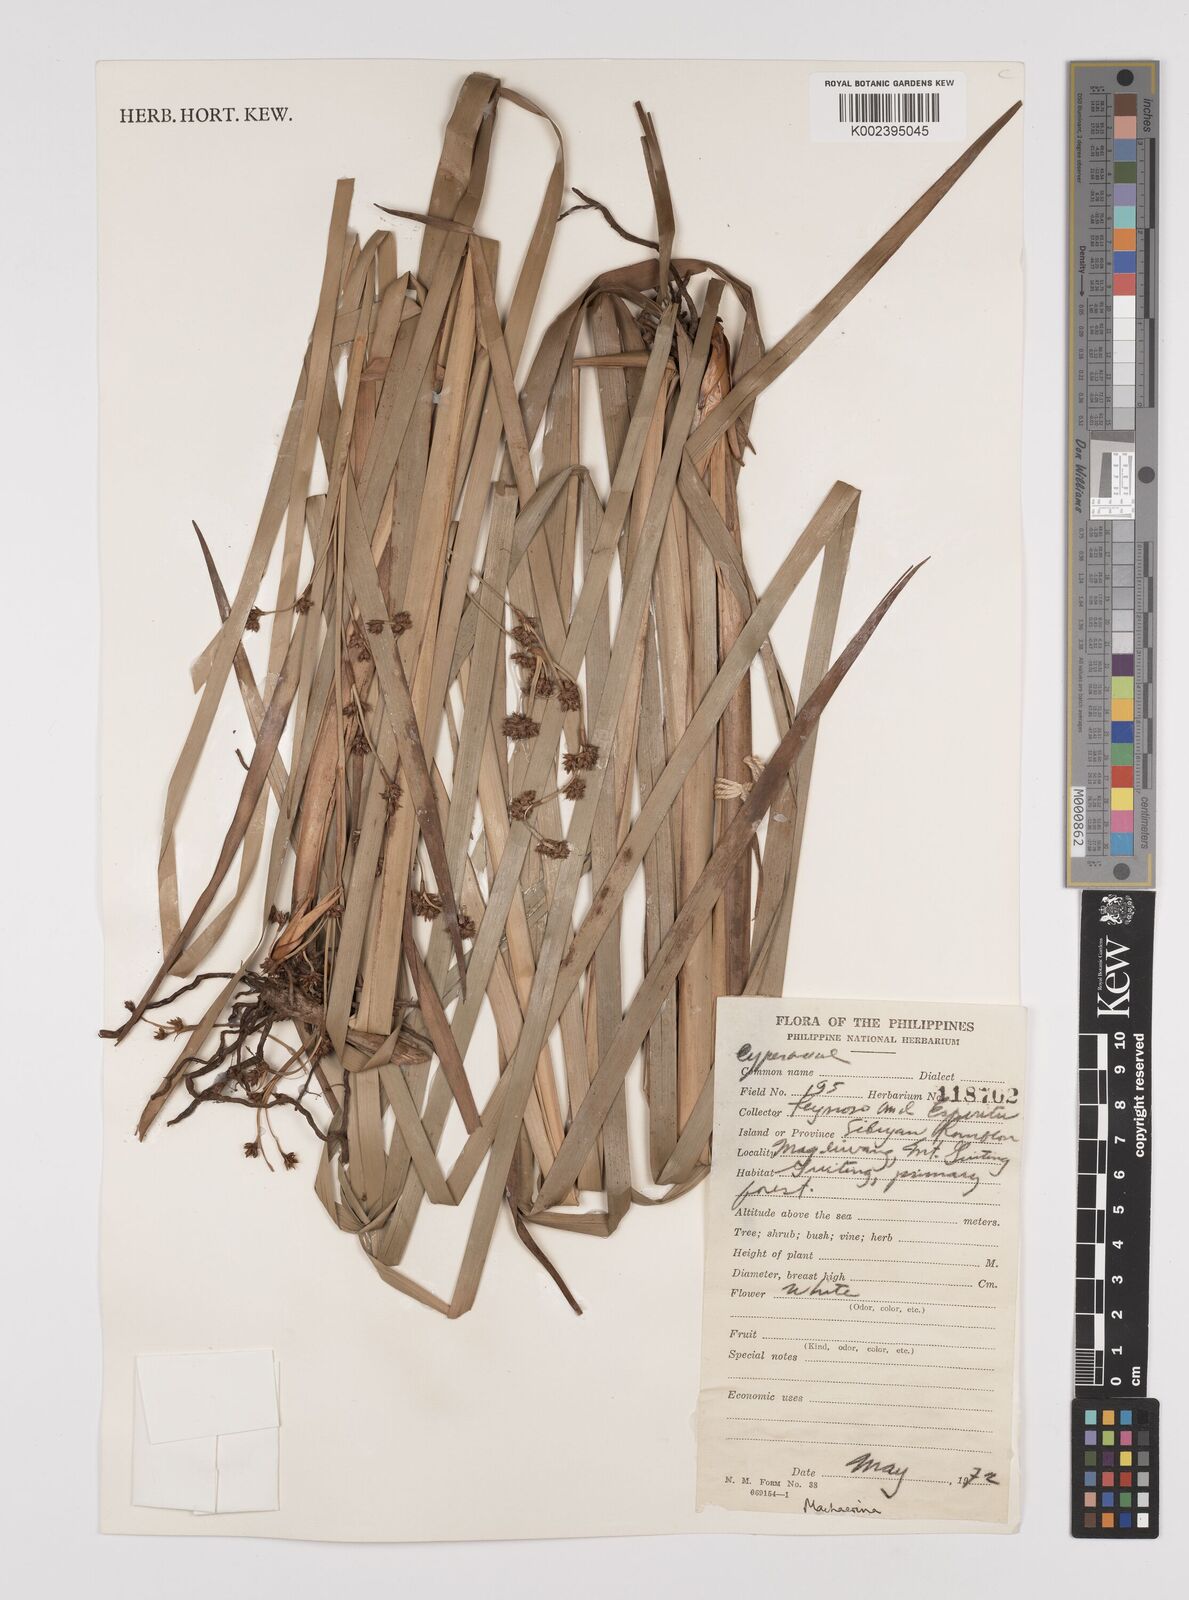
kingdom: Plantae
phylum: Tracheophyta
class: Liliopsida
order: Poales
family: Cyperaceae
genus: Machaerina
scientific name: Machaerina glomerata
